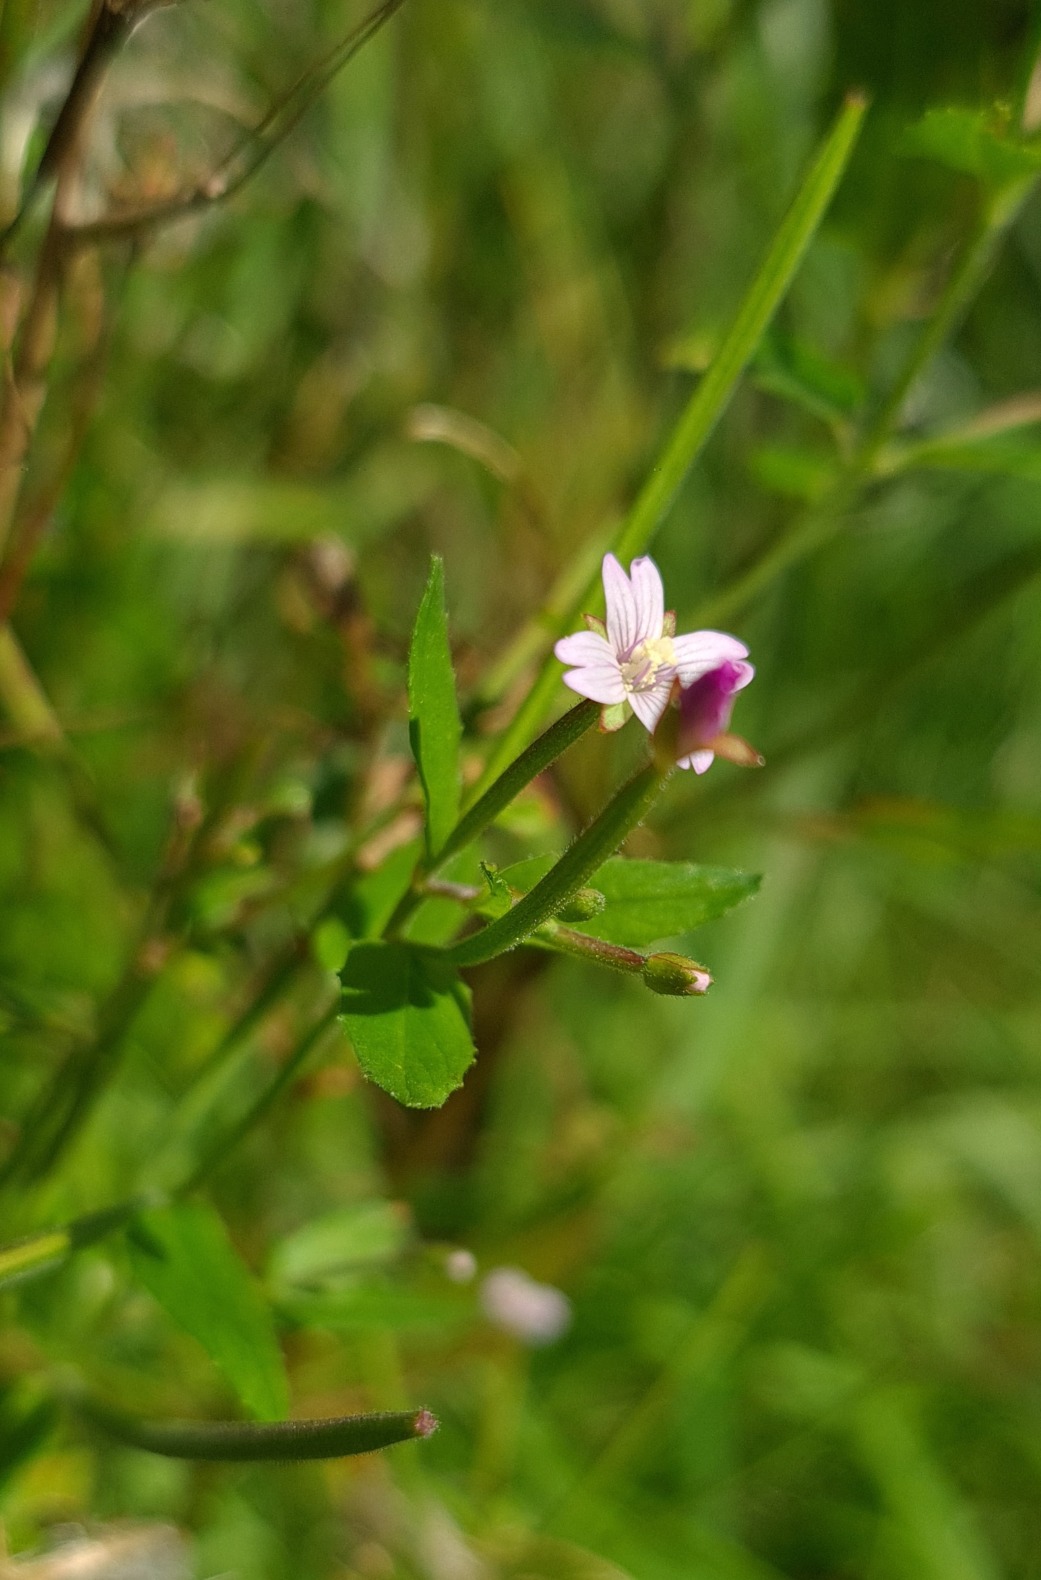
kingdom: Plantae
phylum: Tracheophyta
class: Magnoliopsida
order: Myrtales
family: Onagraceae
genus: Epilobium
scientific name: Epilobium ciliatum
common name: Kirtlet dueurt
